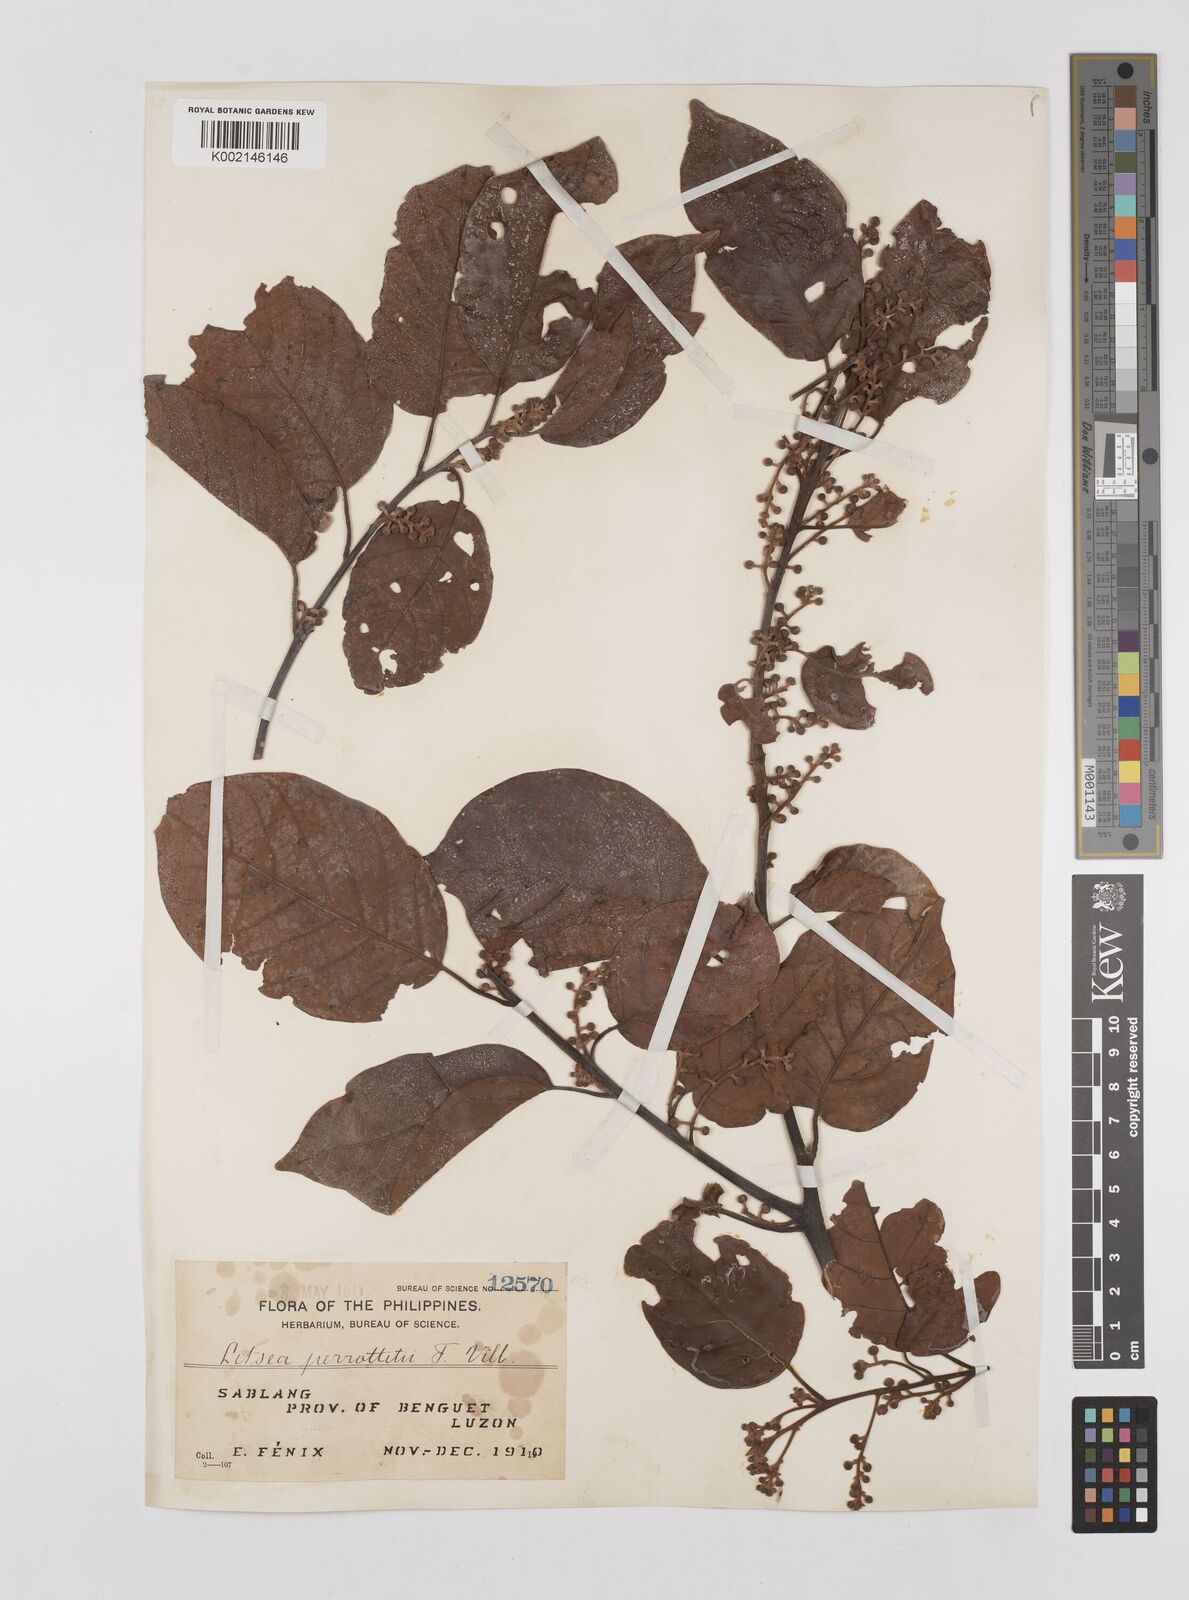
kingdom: Plantae
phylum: Tracheophyta
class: Magnoliopsida
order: Laurales
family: Lauraceae
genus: Litsea
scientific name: Litsea cordata
